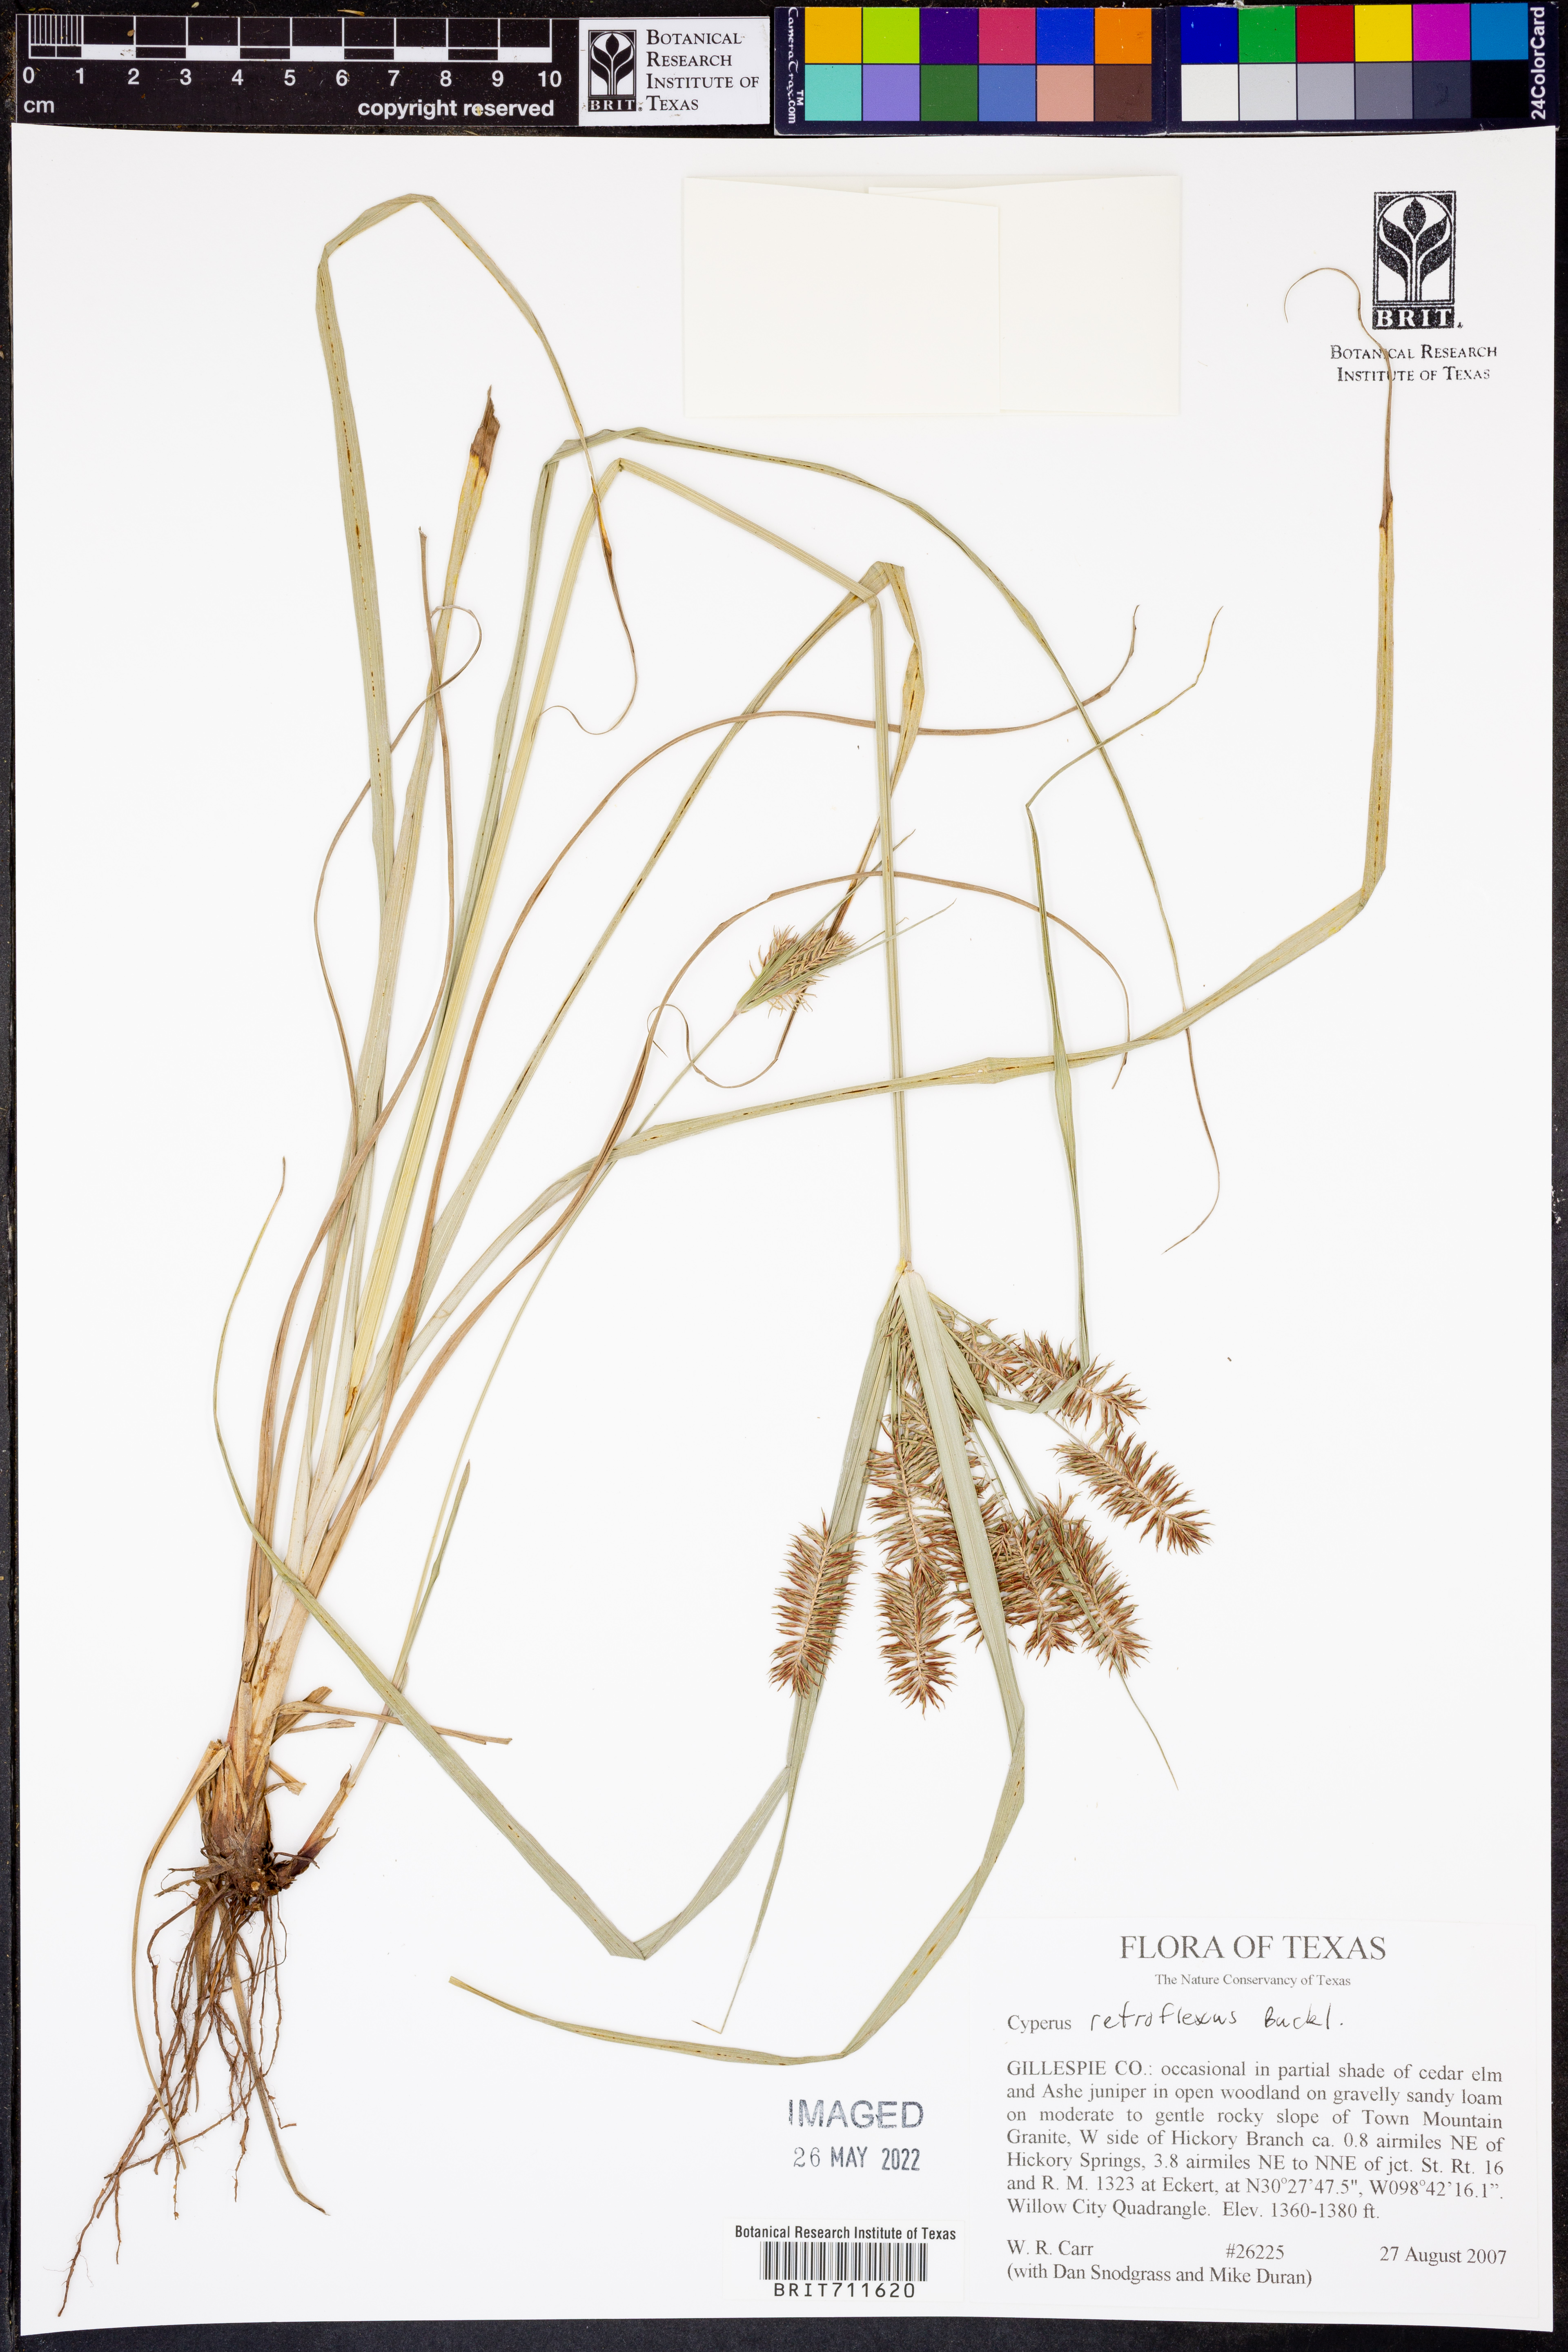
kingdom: Plantae
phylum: Tracheophyta
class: Liliopsida
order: Poales
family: Cyperaceae
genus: Cyperus
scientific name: Cyperus retroflexus
